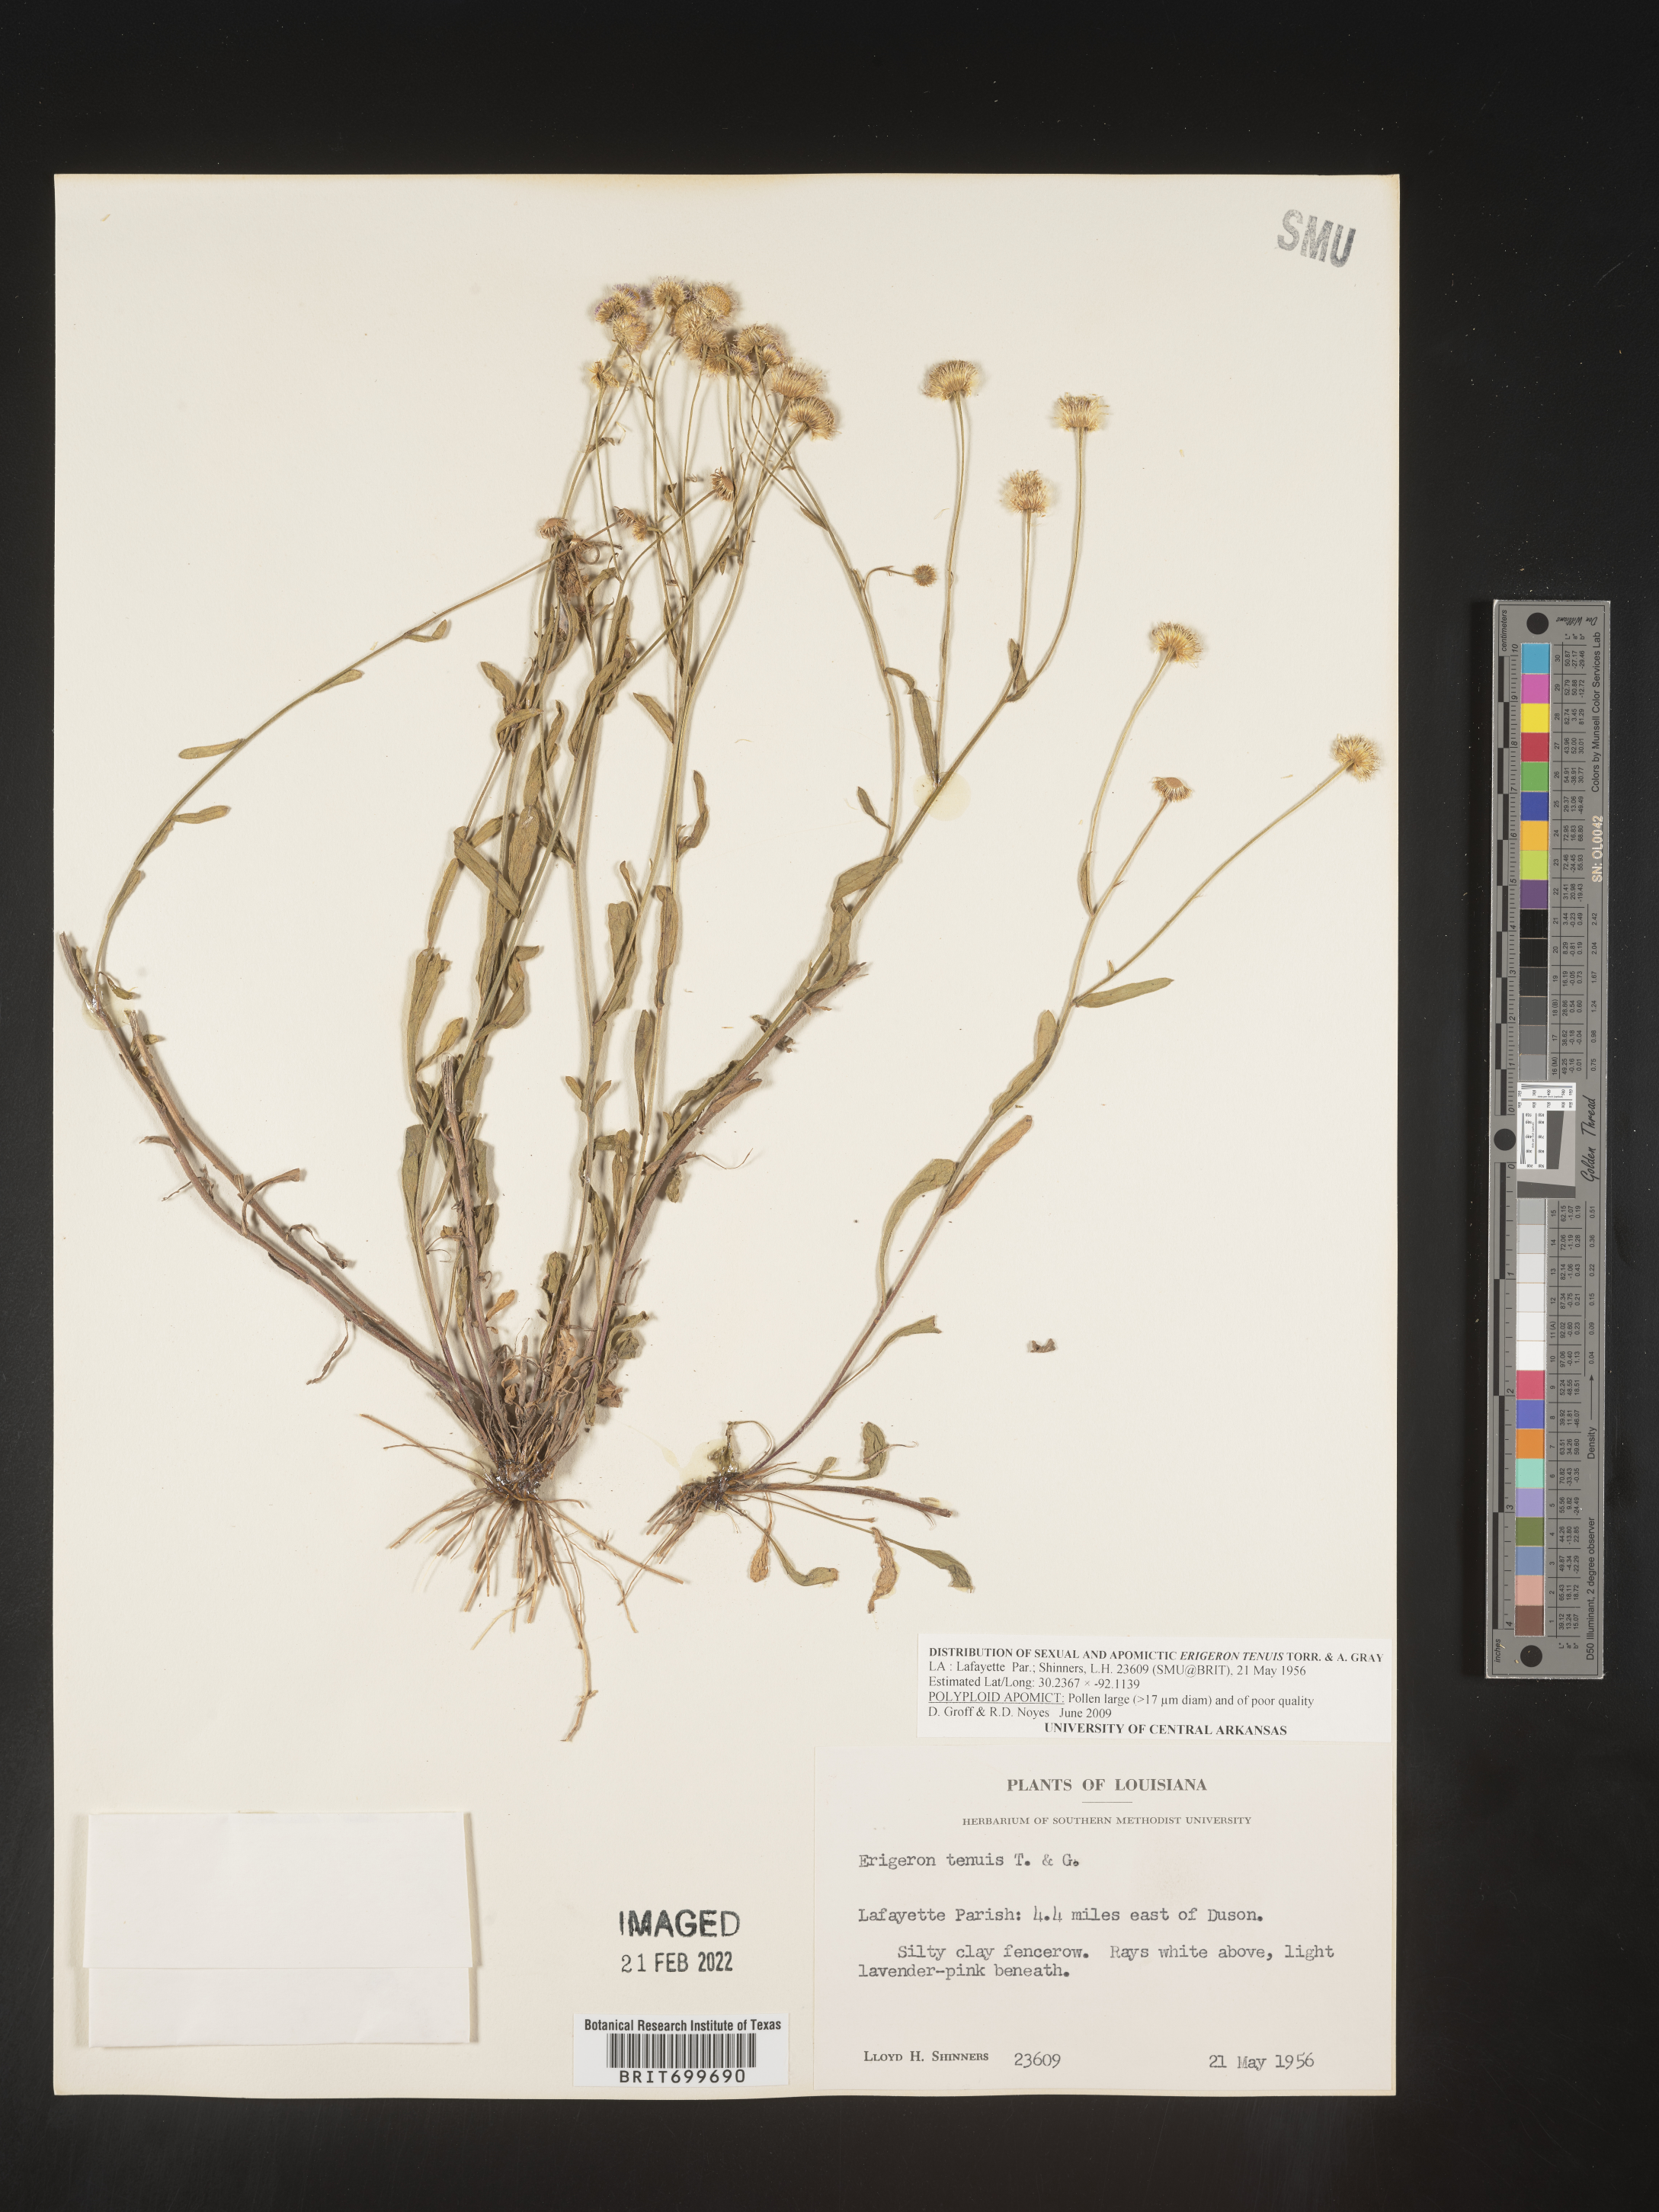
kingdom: Plantae
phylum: Tracheophyta
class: Magnoliopsida
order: Asterales
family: Asteraceae
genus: Erigeron
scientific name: Erigeron tenuis
